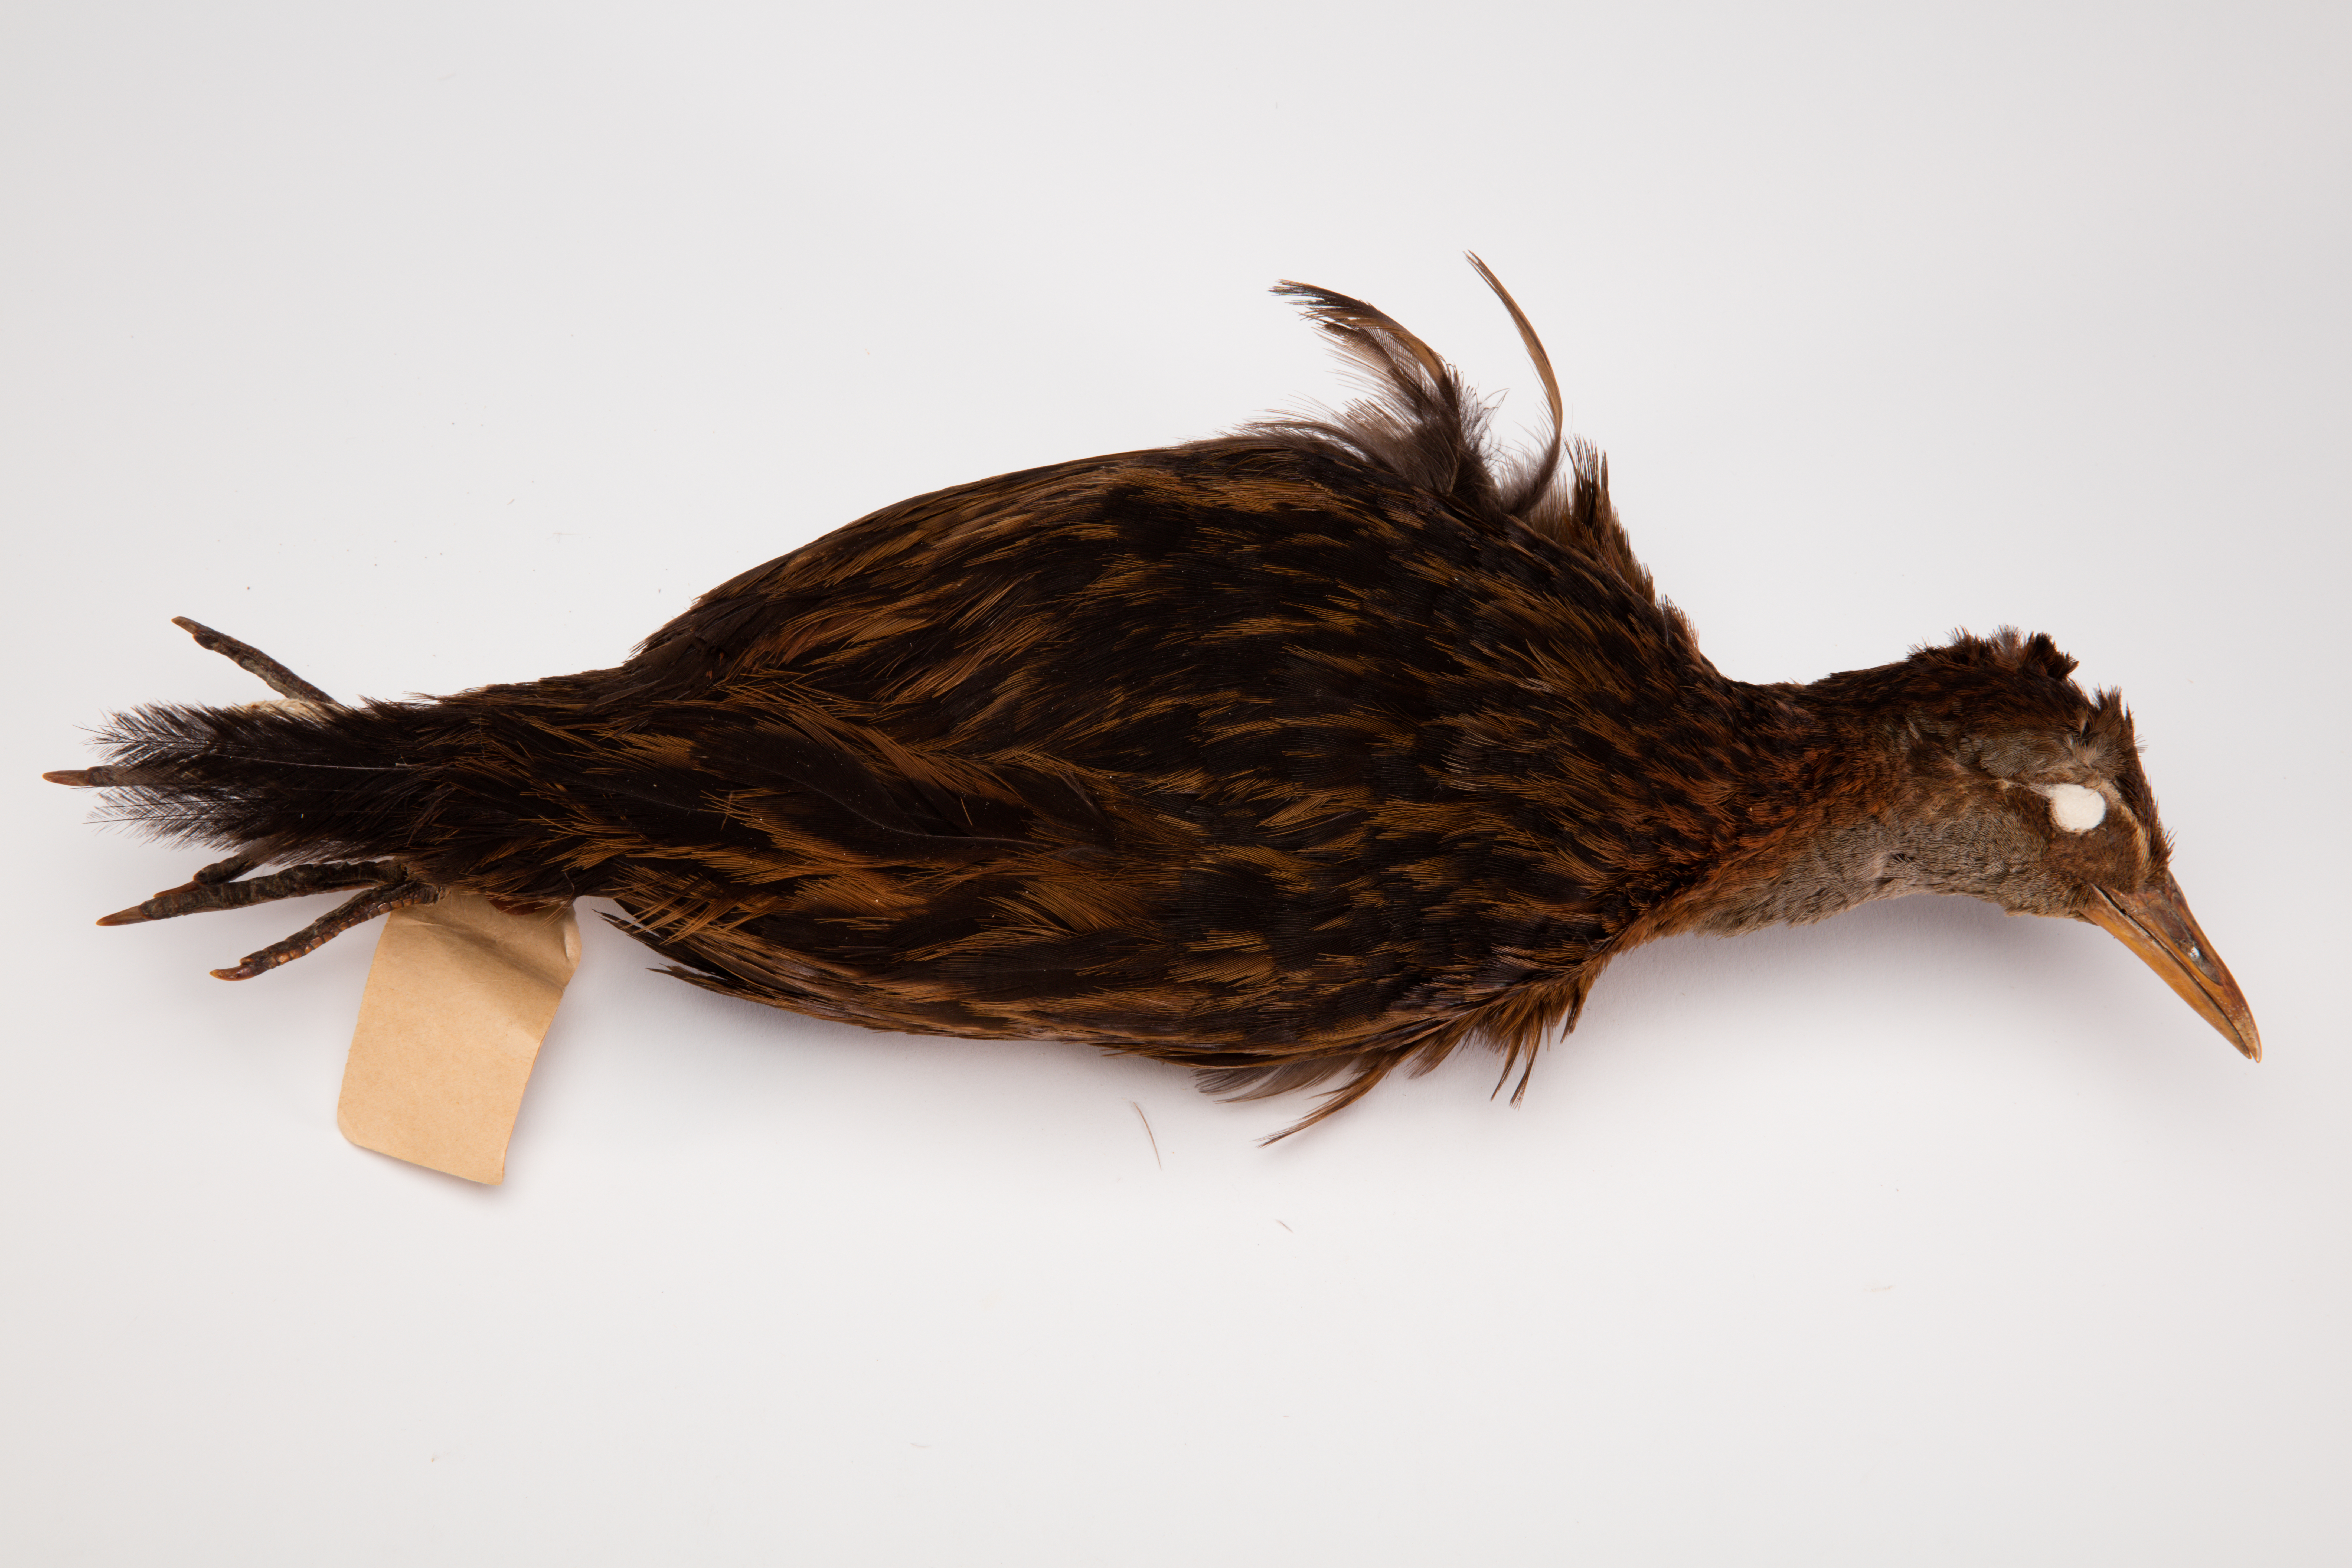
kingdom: Animalia
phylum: Chordata
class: Aves
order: Gruiformes
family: Rallidae
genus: Gallirallus
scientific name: Gallirallus australis
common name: Weka
